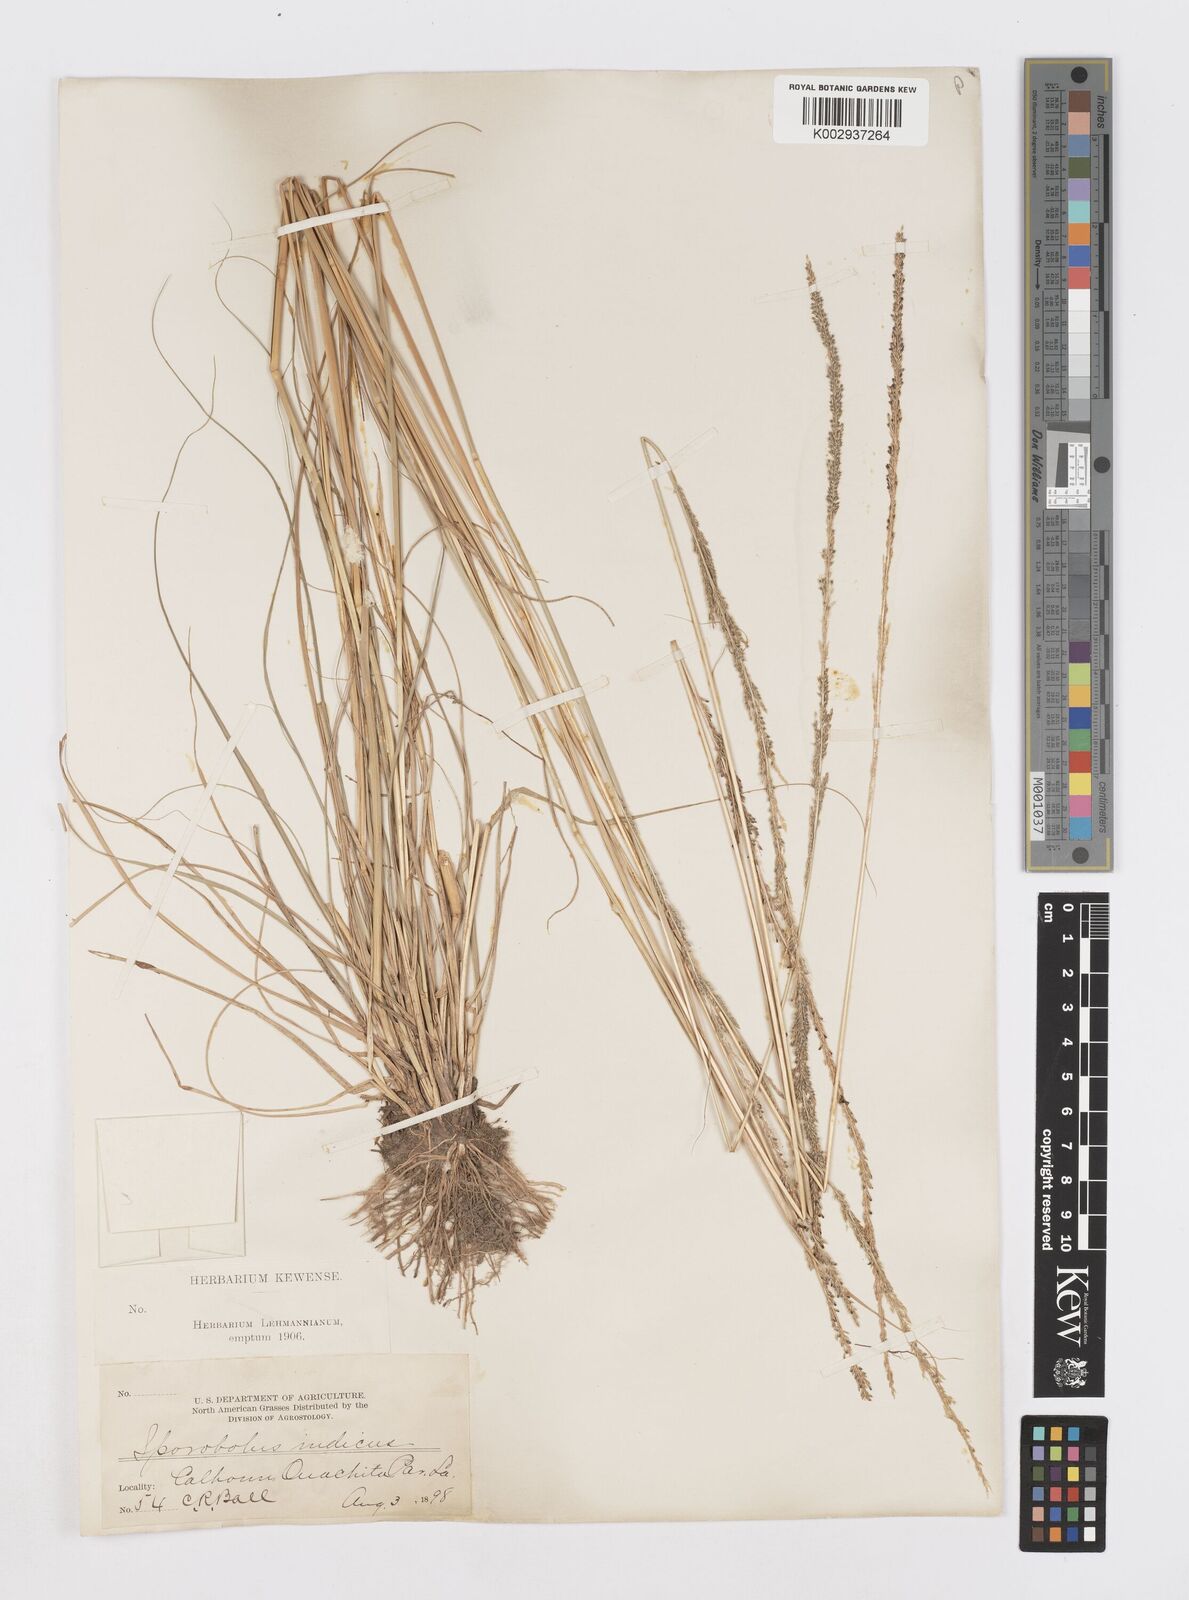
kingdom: Plantae
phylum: Tracheophyta
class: Liliopsida
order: Poales
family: Poaceae
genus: Sporobolus
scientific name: Sporobolus indicus
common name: Smut grass
